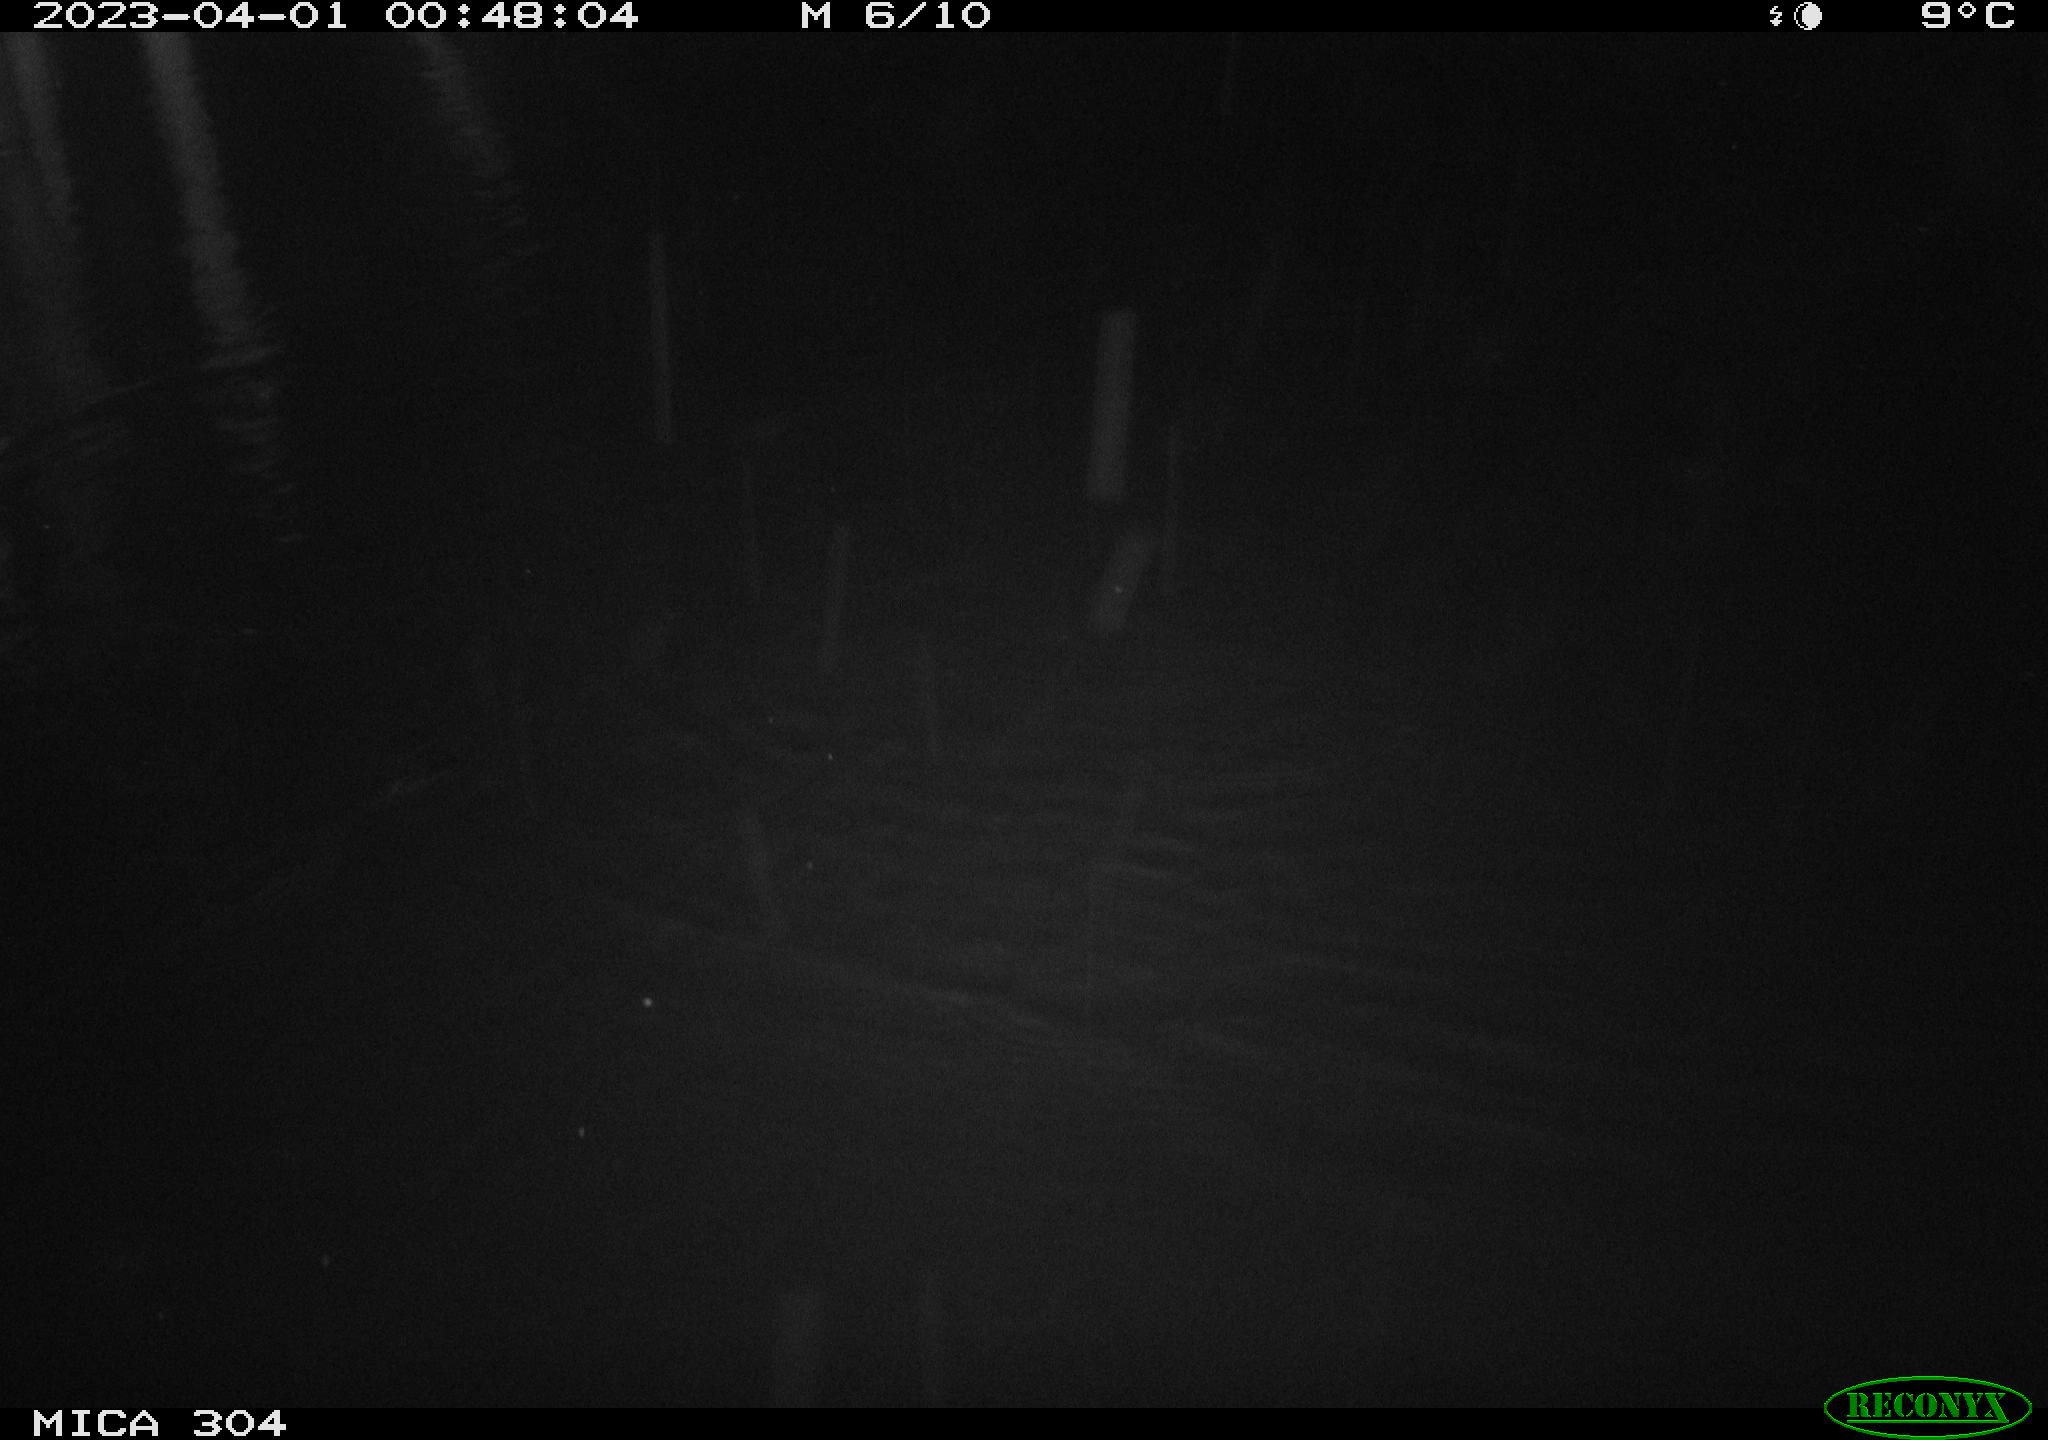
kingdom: Animalia
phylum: Chordata
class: Mammalia
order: Rodentia
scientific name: Rodentia
